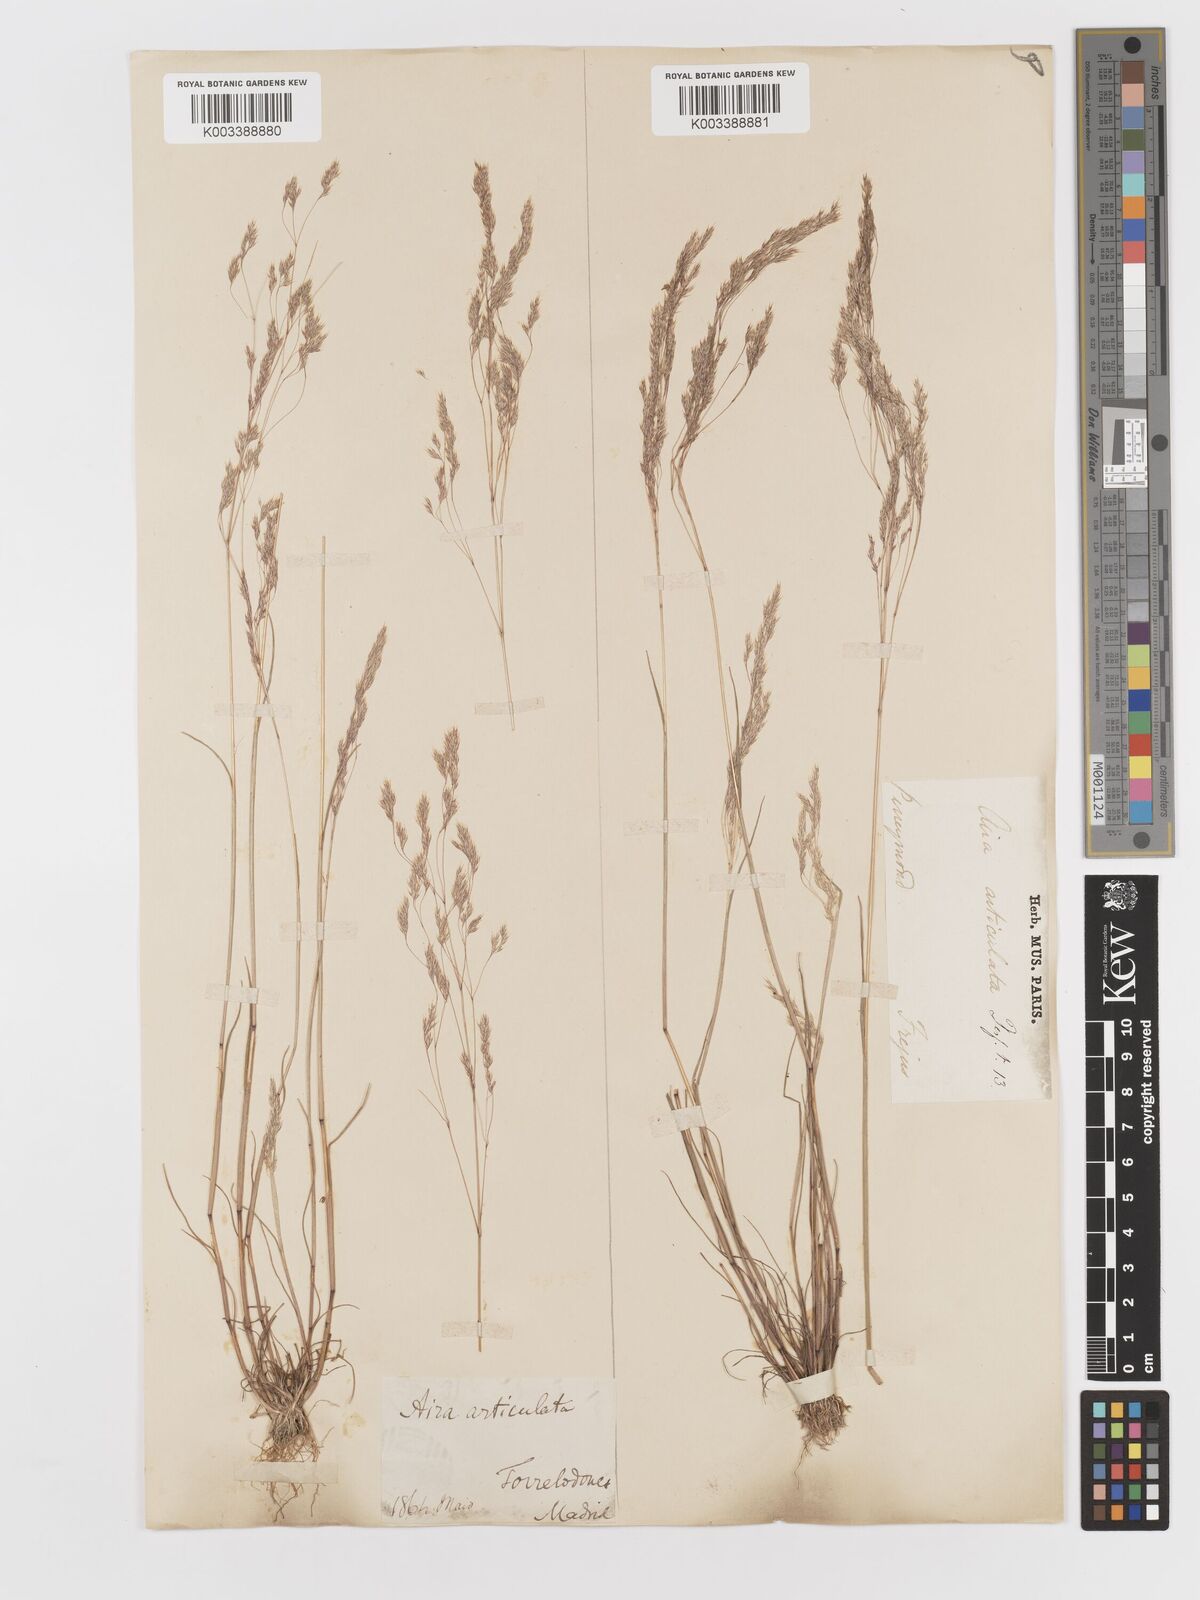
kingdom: Plantae
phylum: Tracheophyta
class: Liliopsida
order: Poales
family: Poaceae
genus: Corynephorus
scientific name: Corynephorus fasciculatus
